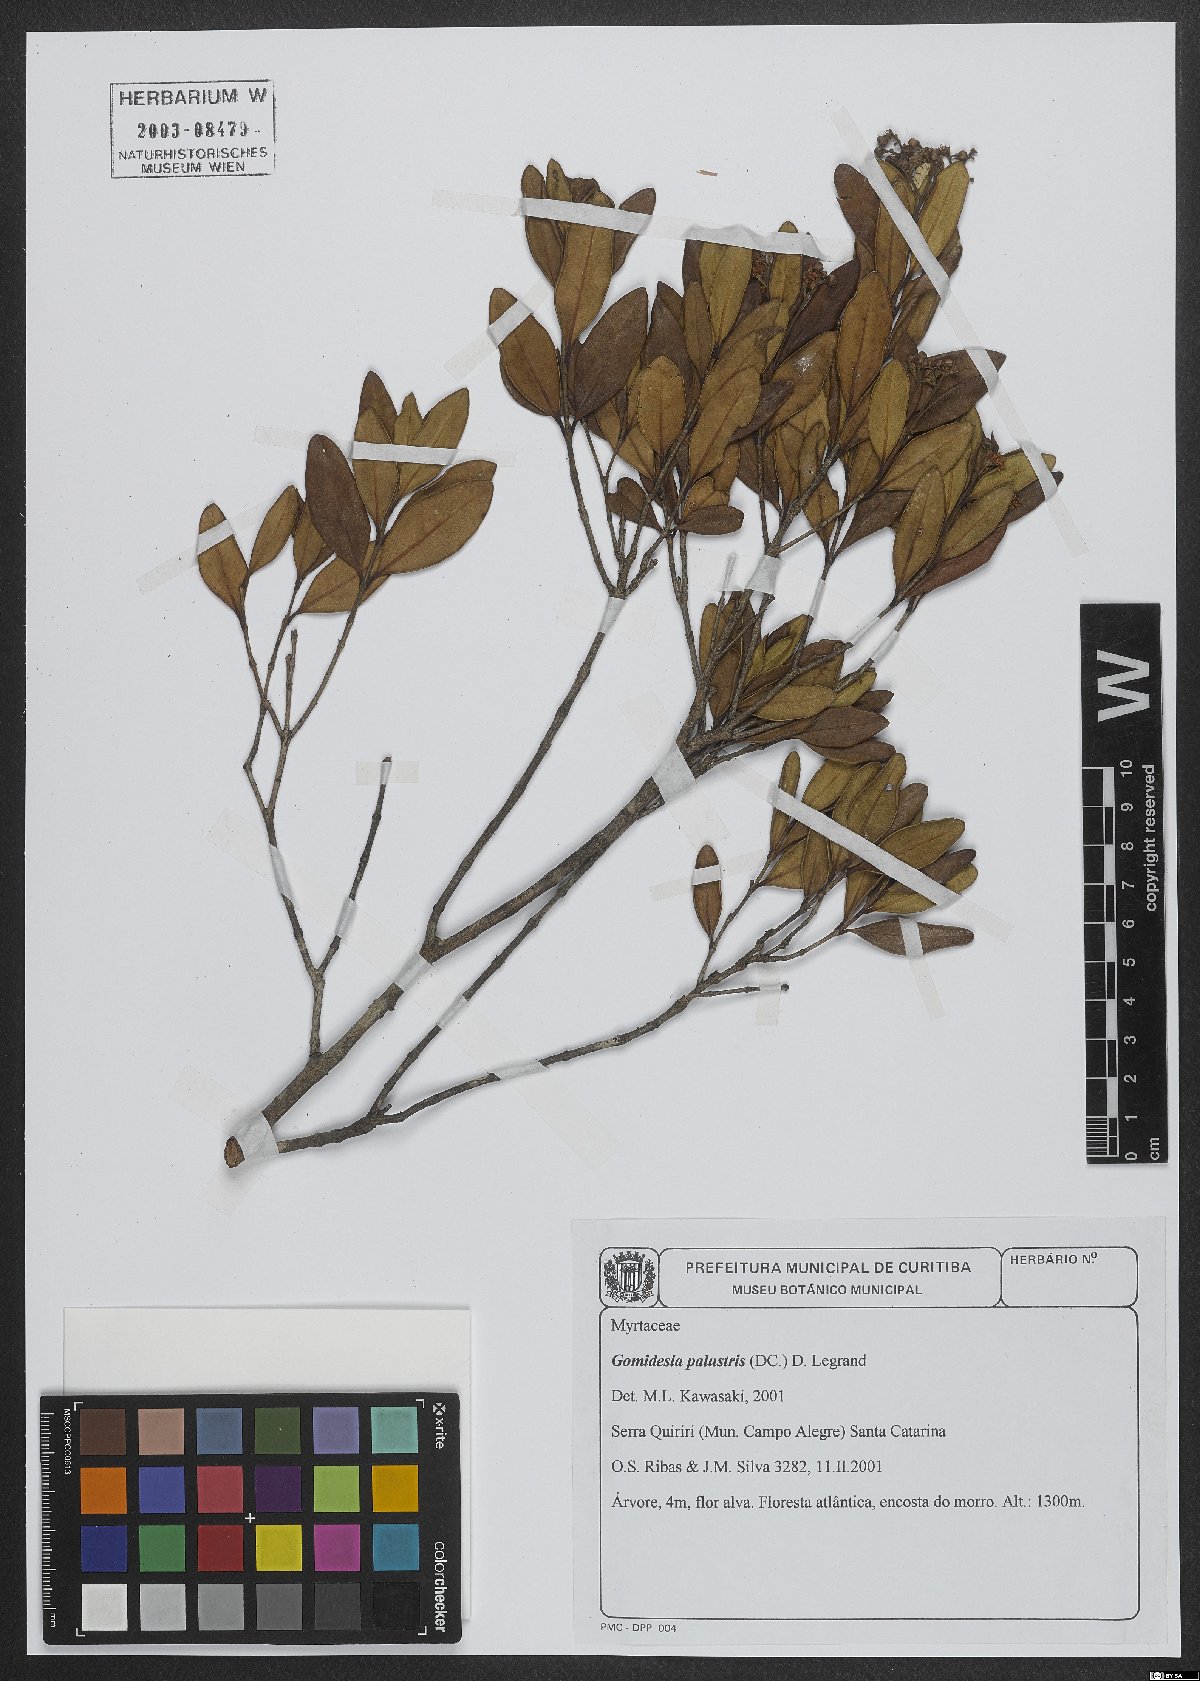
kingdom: Plantae
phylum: Tracheophyta
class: Magnoliopsida
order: Myrtales
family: Myrtaceae
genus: Myrcia
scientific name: Myrcia palustris
